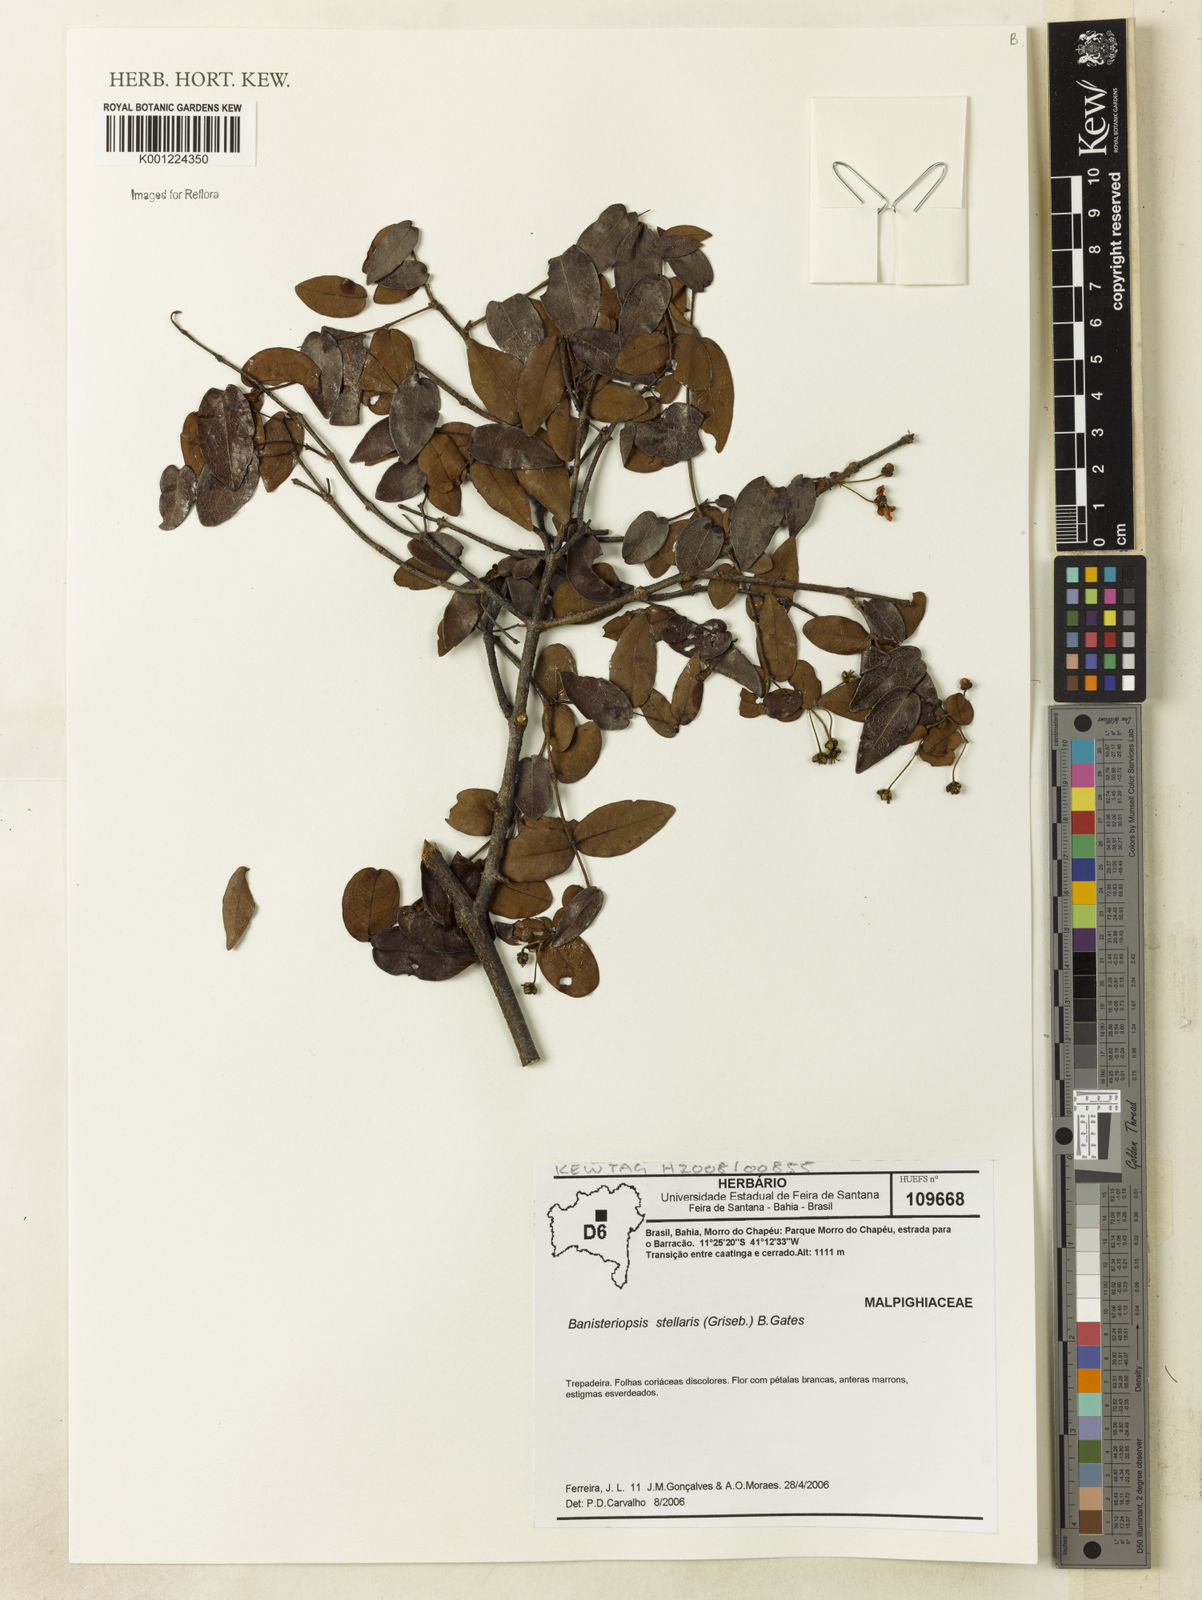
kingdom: Plantae
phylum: Tracheophyta
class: Magnoliopsida
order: Malpighiales
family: Malpighiaceae
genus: Banisteriopsis
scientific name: Banisteriopsis stellaris
